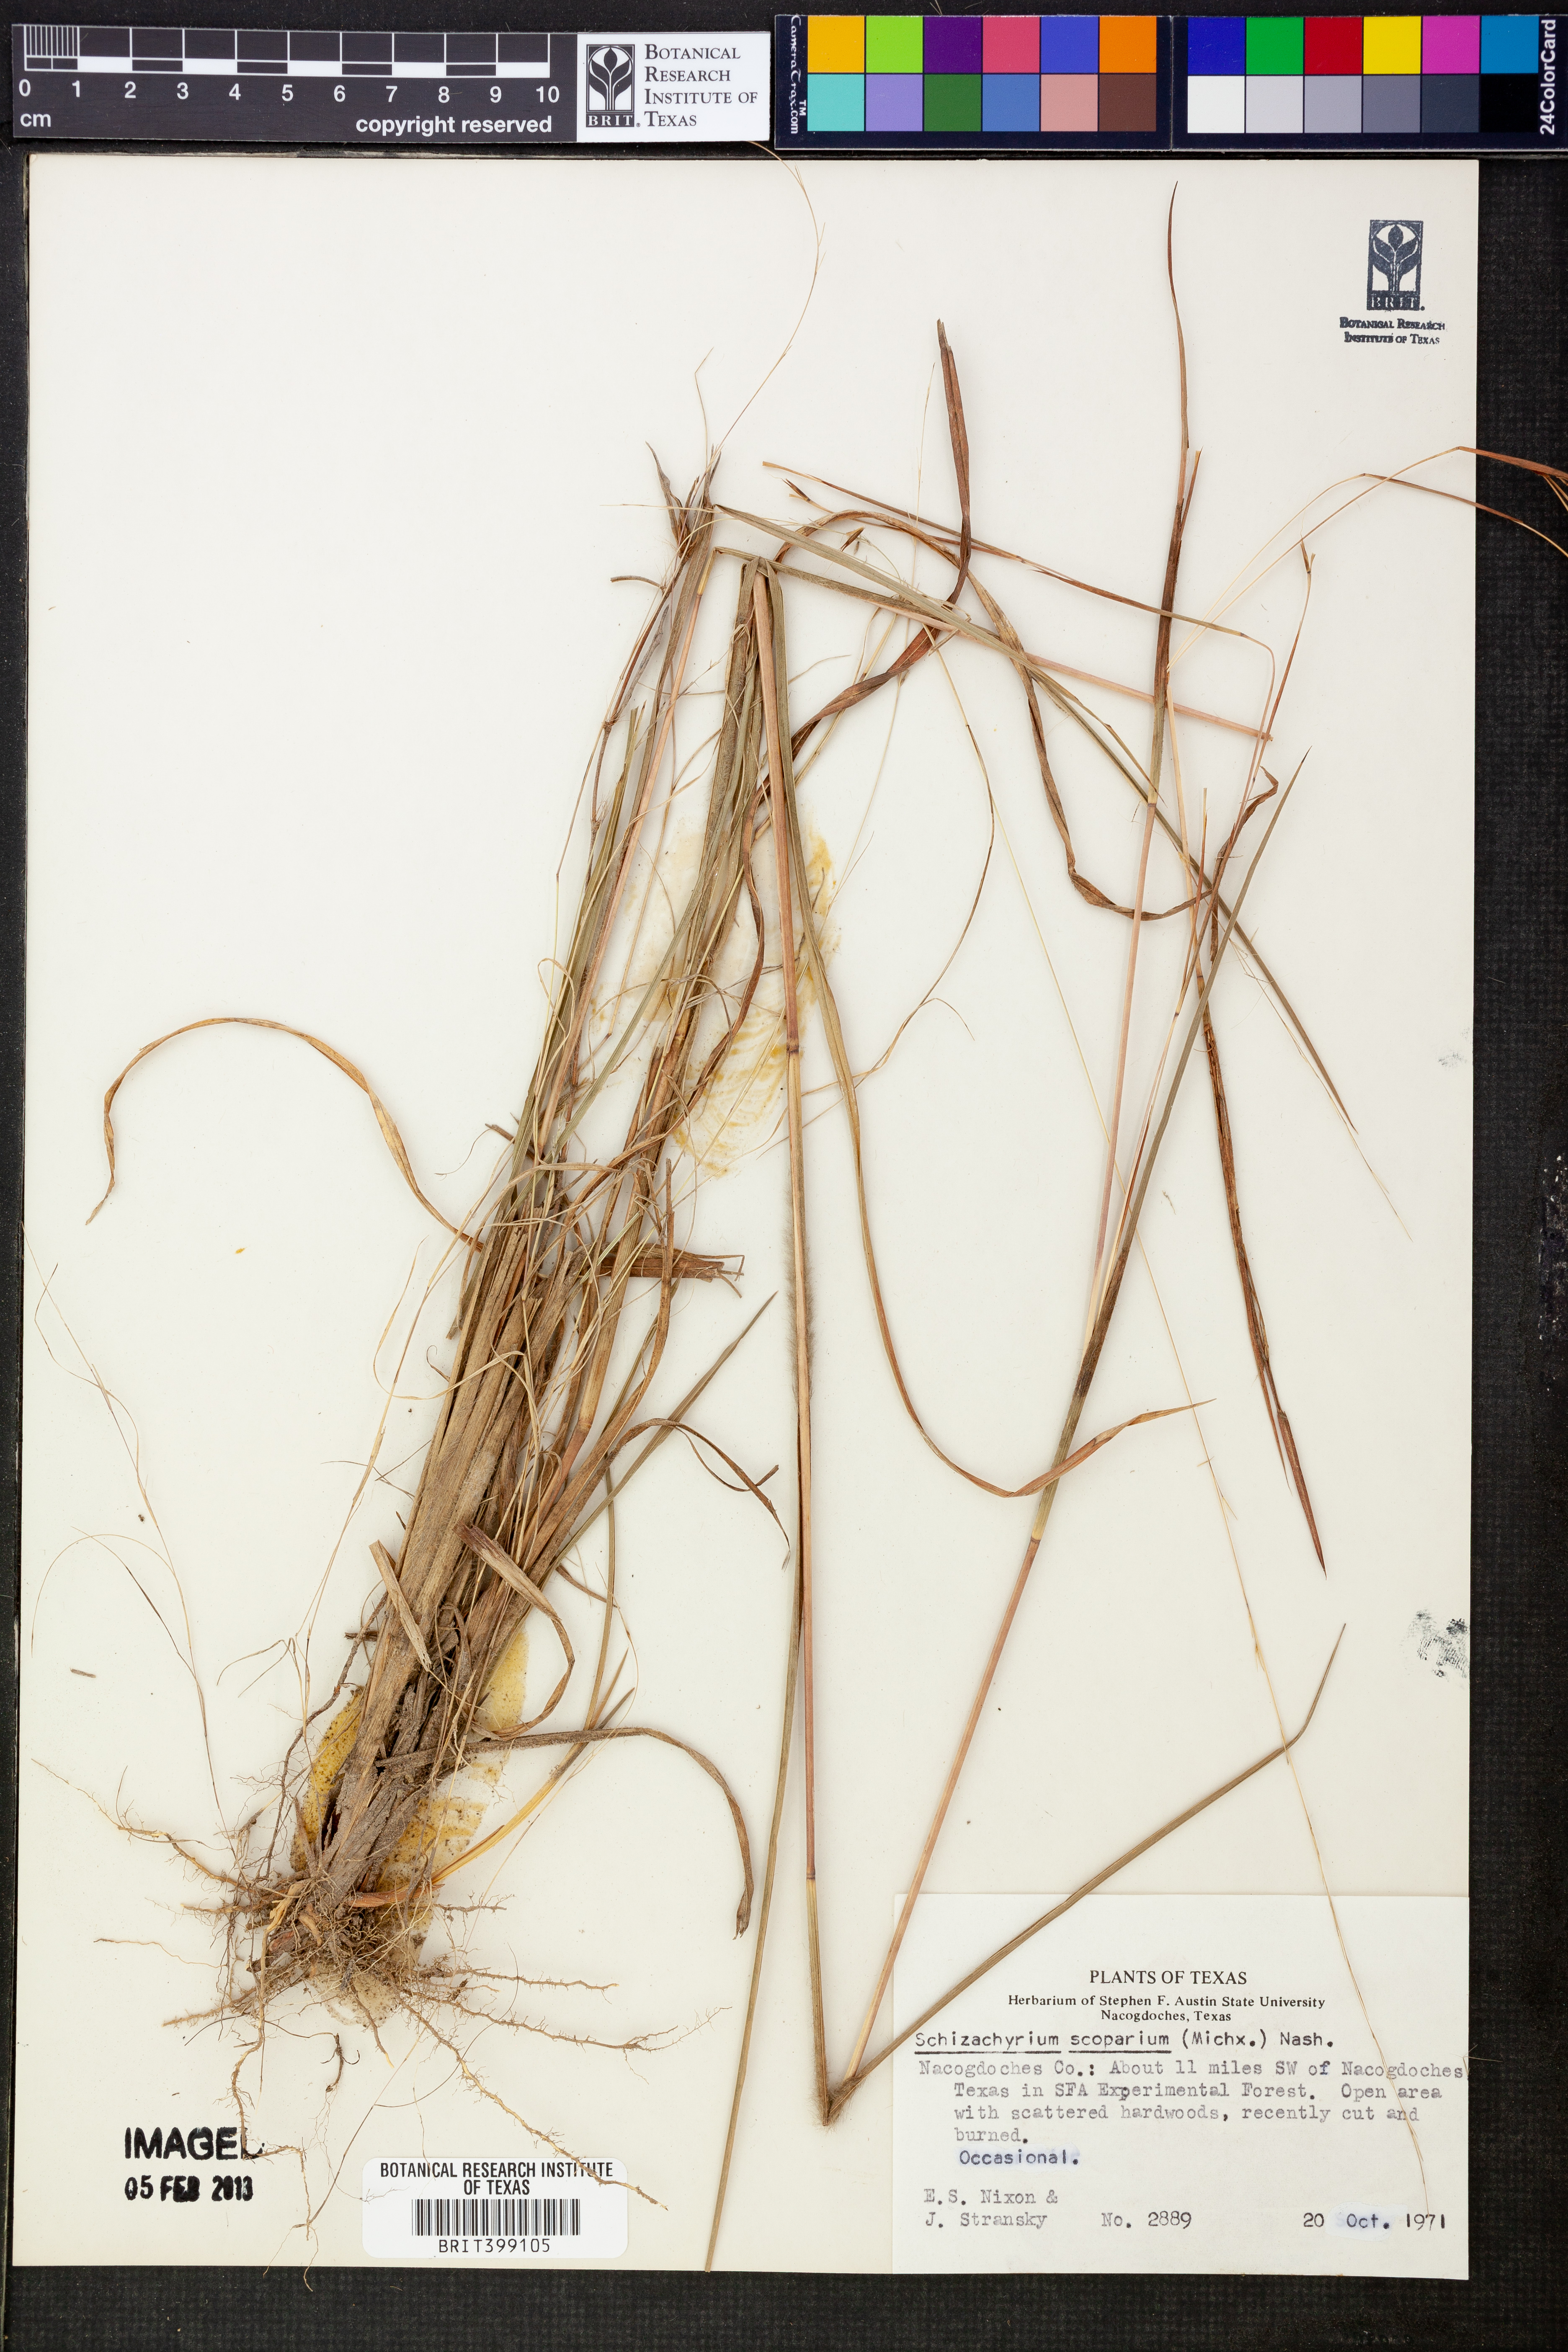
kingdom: Plantae
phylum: Tracheophyta
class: Liliopsida
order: Poales
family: Poaceae
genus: Schizachyrium
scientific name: Schizachyrium scoparium
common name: Little bluestem
